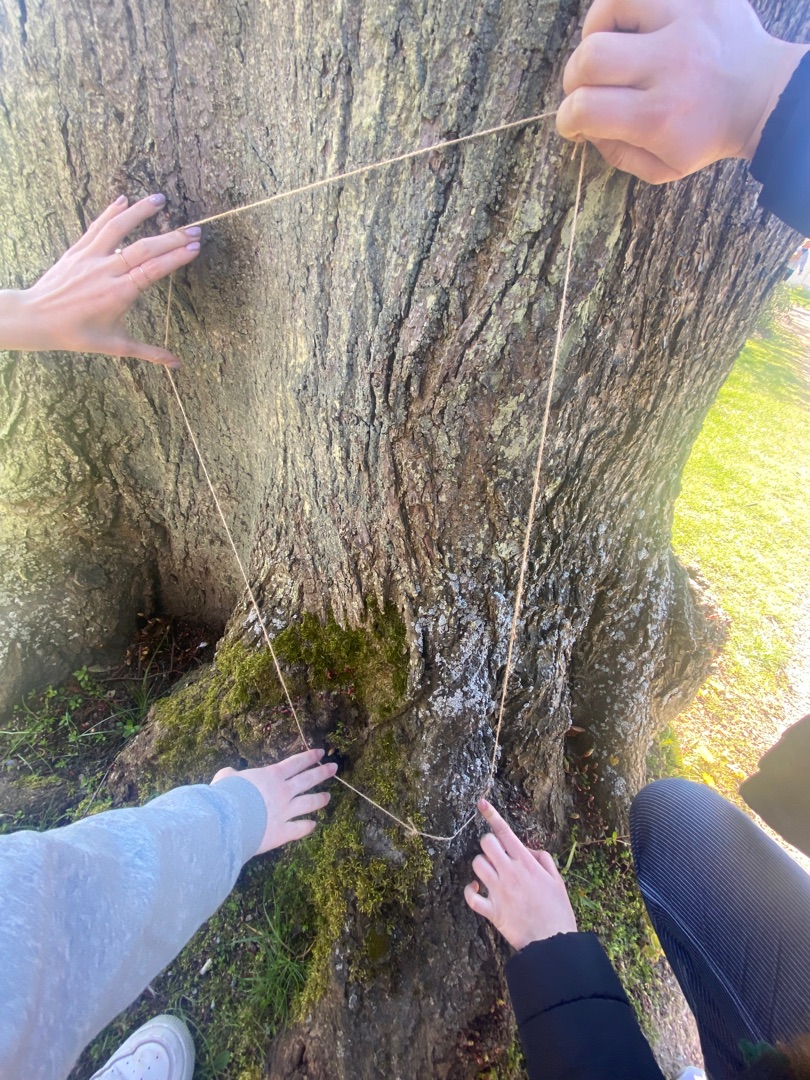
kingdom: Fungi
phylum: Ascomycota
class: Lecanoromycetes
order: Caliciales
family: Physciaceae
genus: Physcia
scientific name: Physcia adscendens
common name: Hætte-rosetlav
